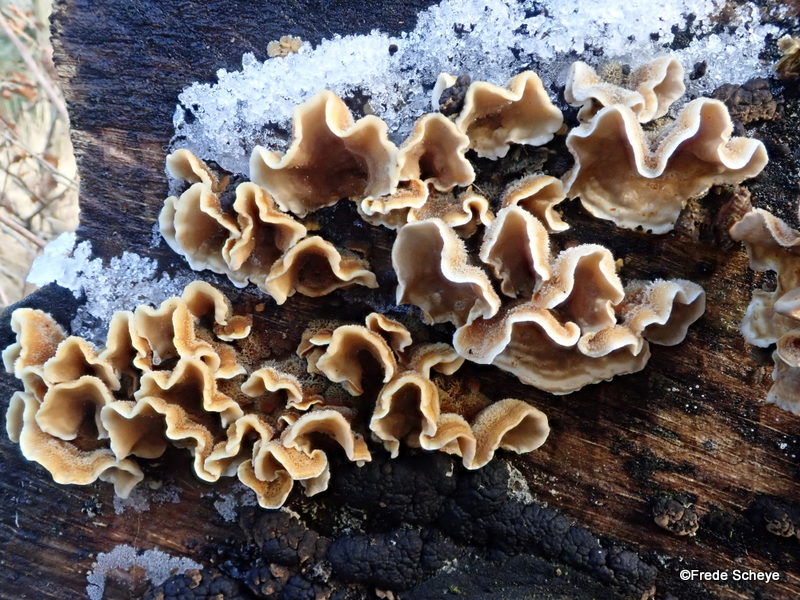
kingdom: Fungi
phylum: Basidiomycota
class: Agaricomycetes
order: Russulales
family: Stereaceae
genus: Stereum
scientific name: Stereum hirsutum
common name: håret lædersvamp
